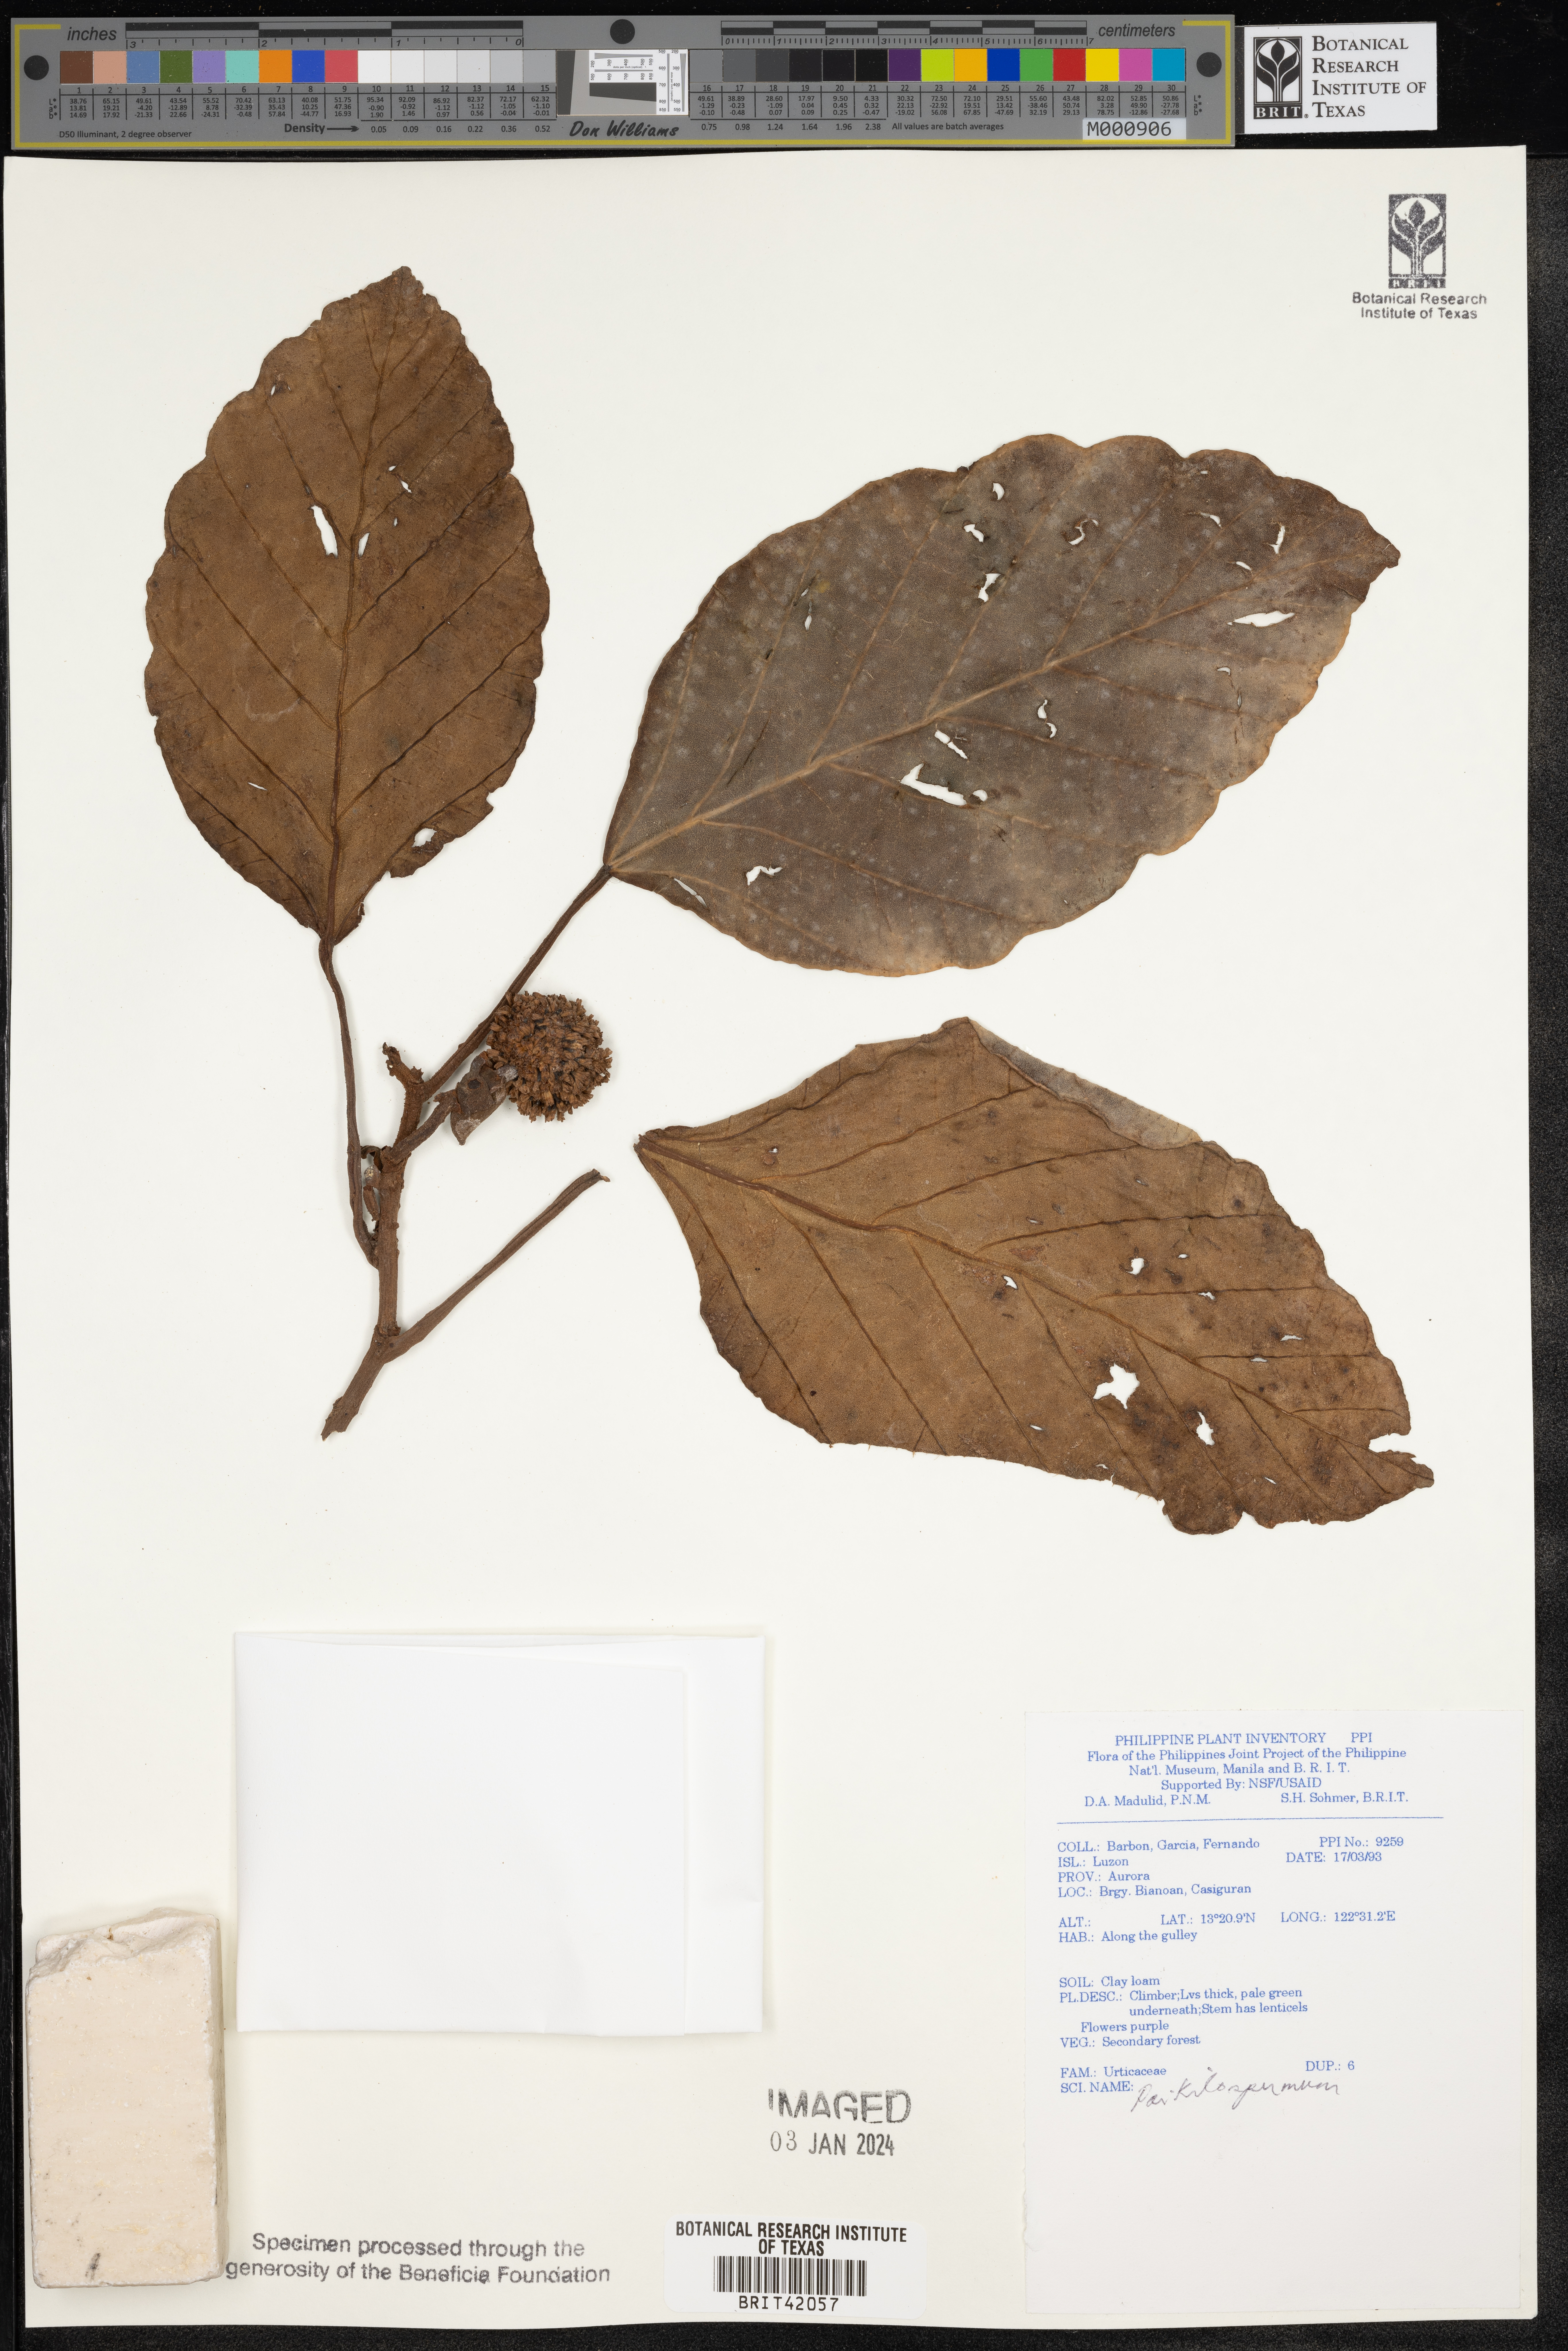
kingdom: Plantae
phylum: Tracheophyta
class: Magnoliopsida
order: Rosales
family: Urticaceae
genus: Poikilospermum
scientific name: Poikilospermum
